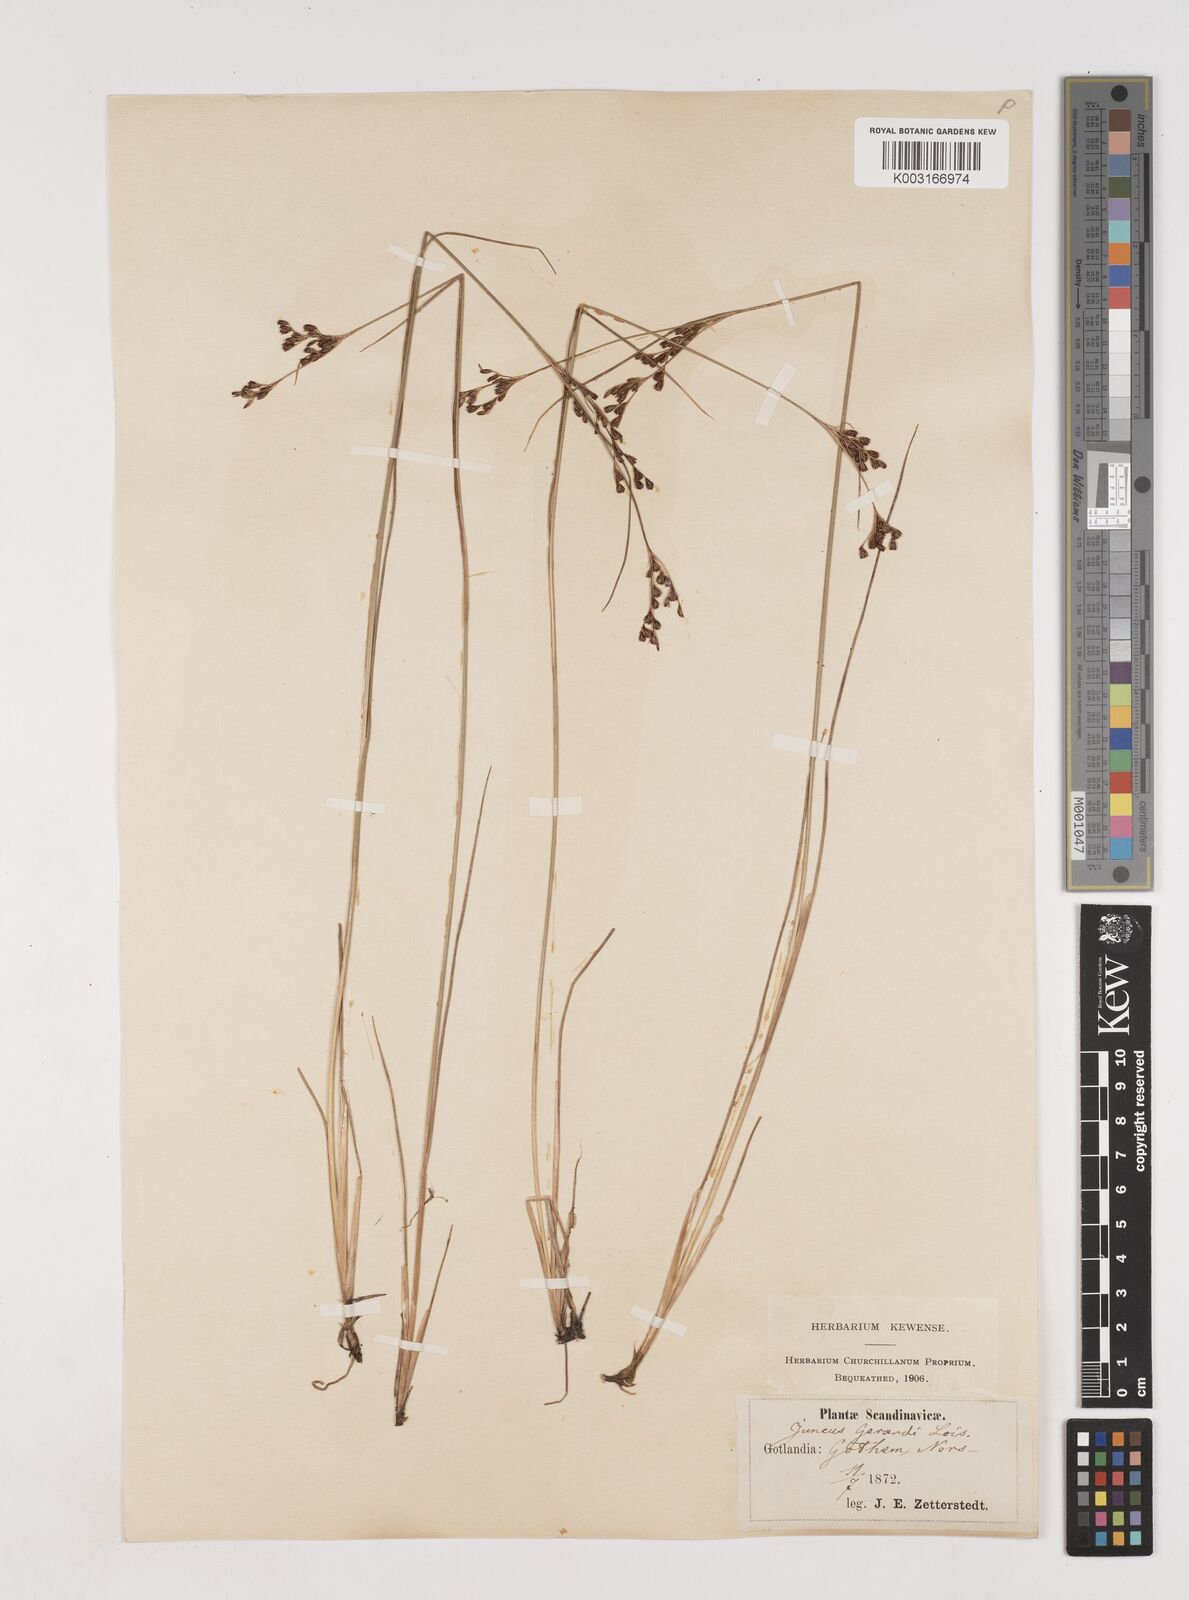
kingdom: Plantae
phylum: Tracheophyta
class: Liliopsida
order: Poales
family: Juncaceae
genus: Juncus
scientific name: Juncus gerardi
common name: Saltmarsh rush
